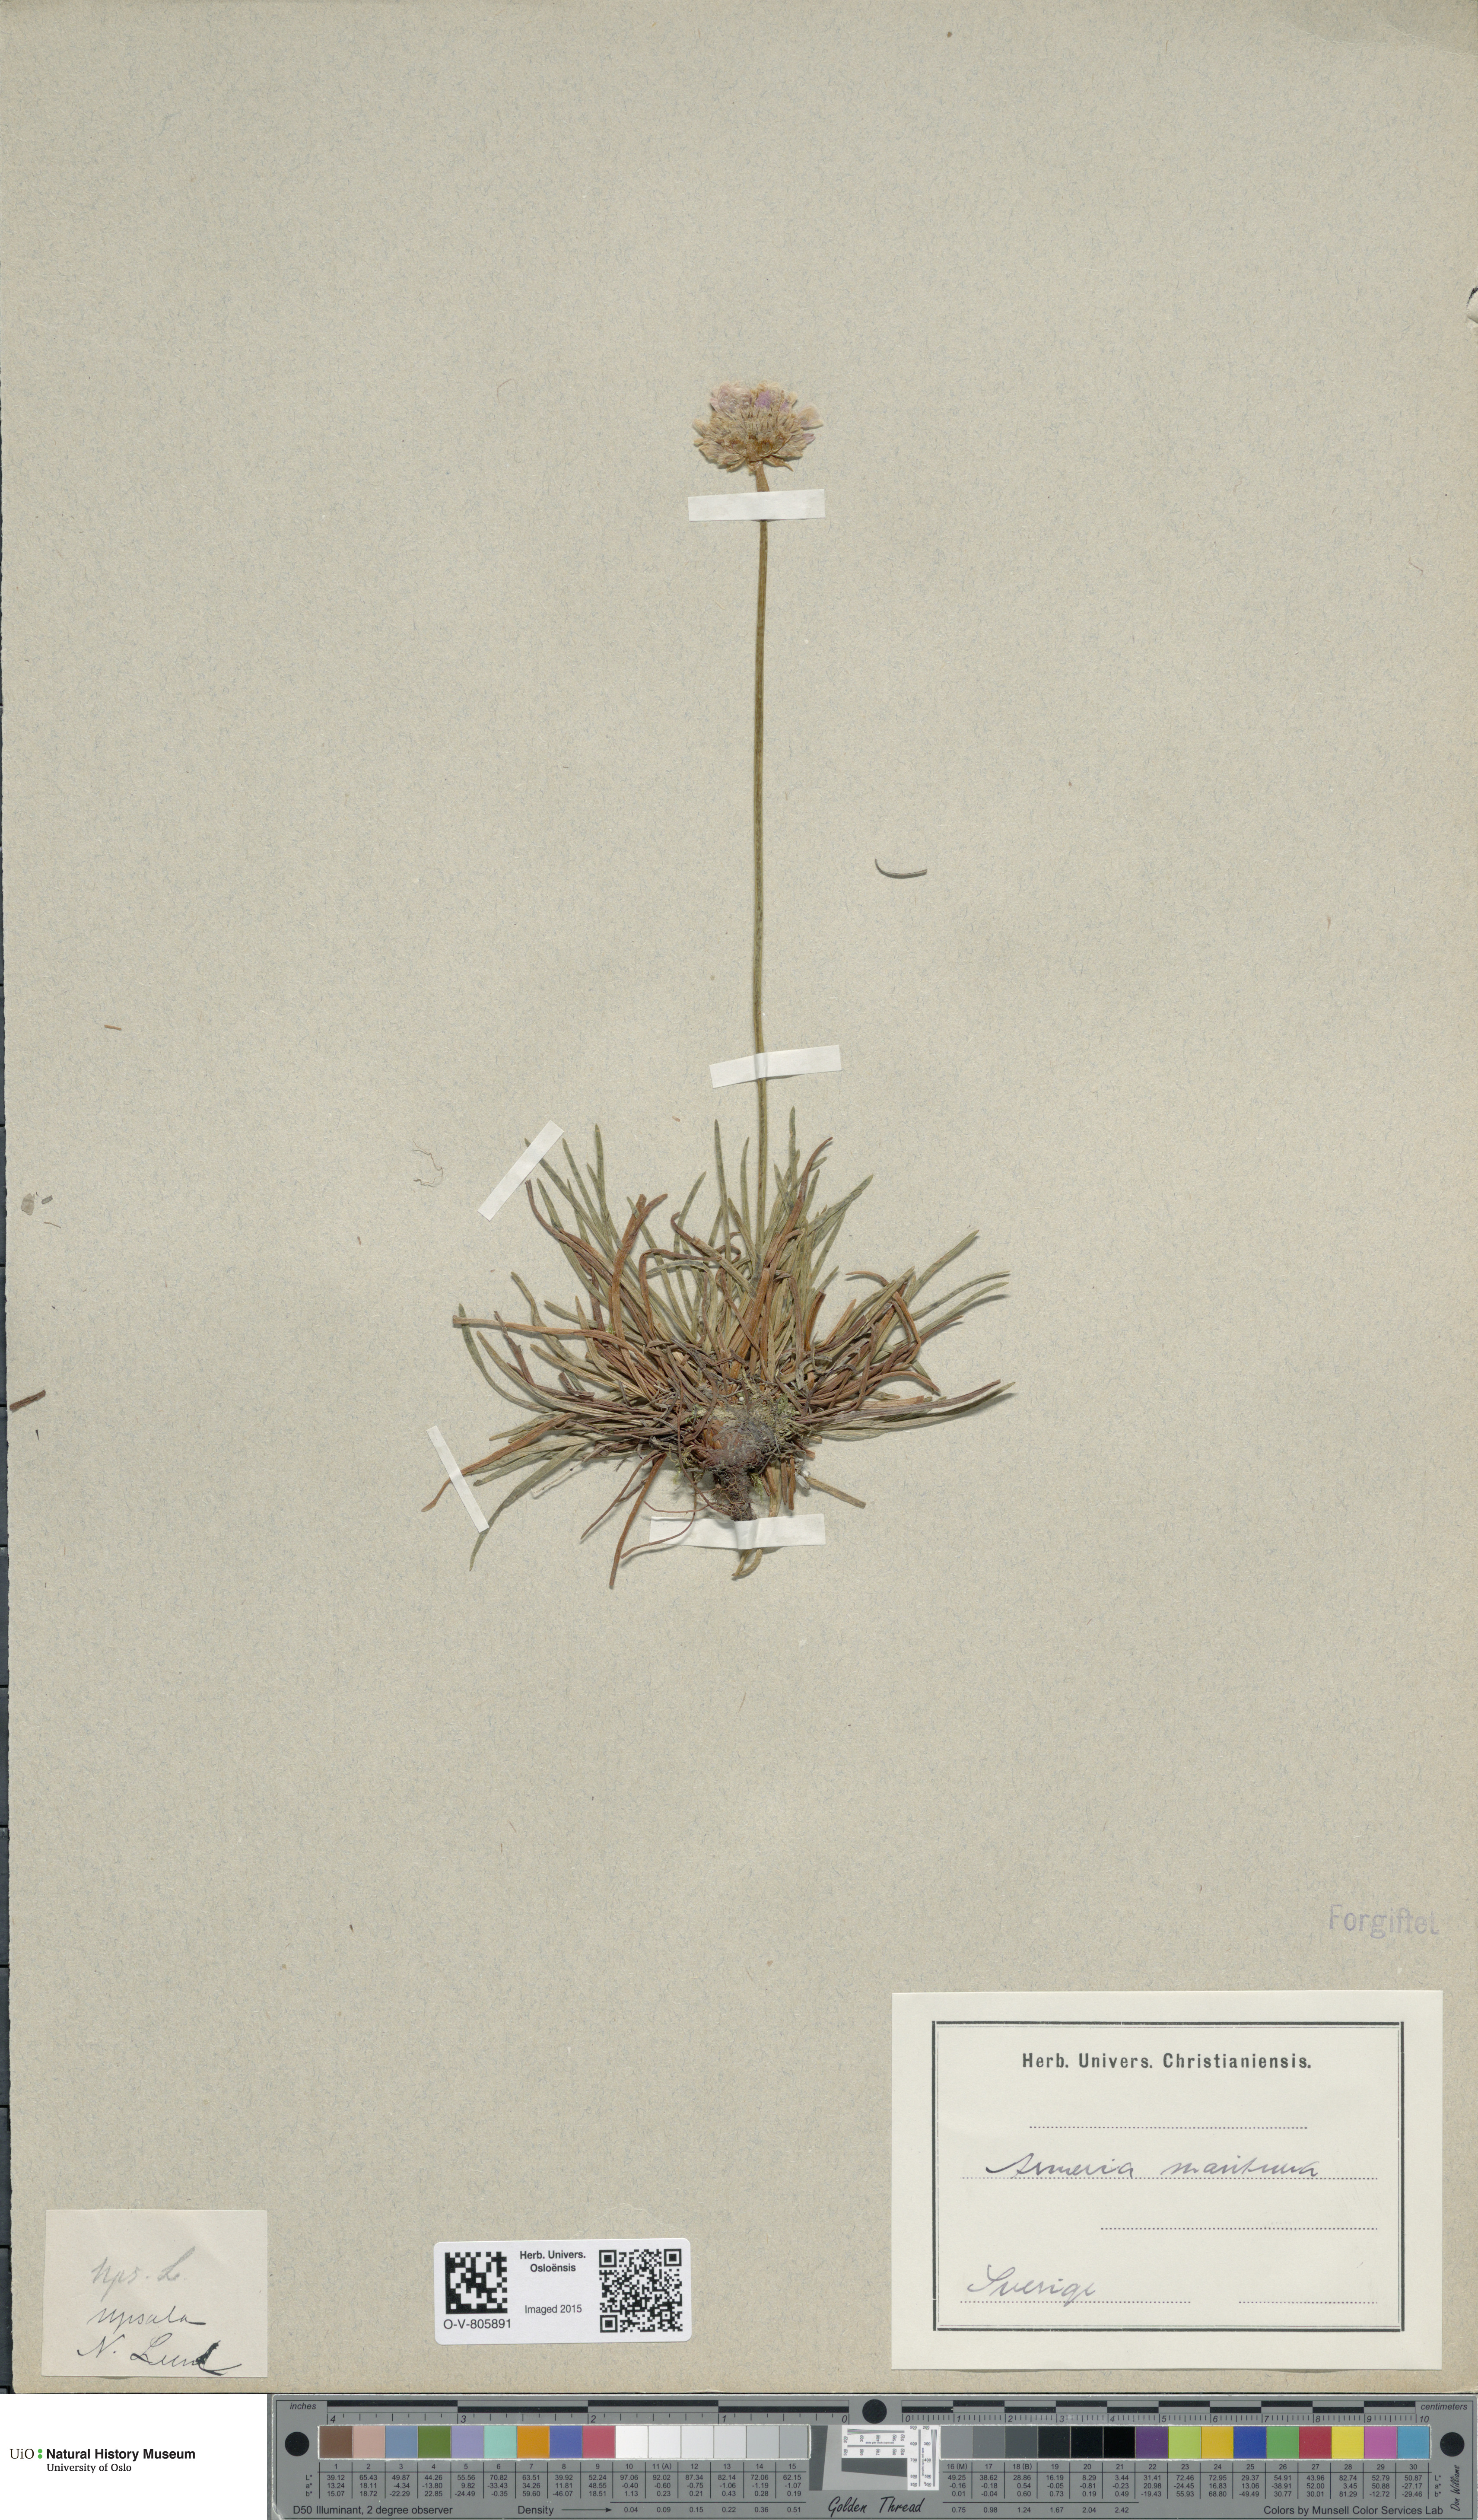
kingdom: Plantae
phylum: Tracheophyta
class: Magnoliopsida
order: Caryophyllales
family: Plumbaginaceae
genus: Armeria
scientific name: Armeria maritima
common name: Thrift
